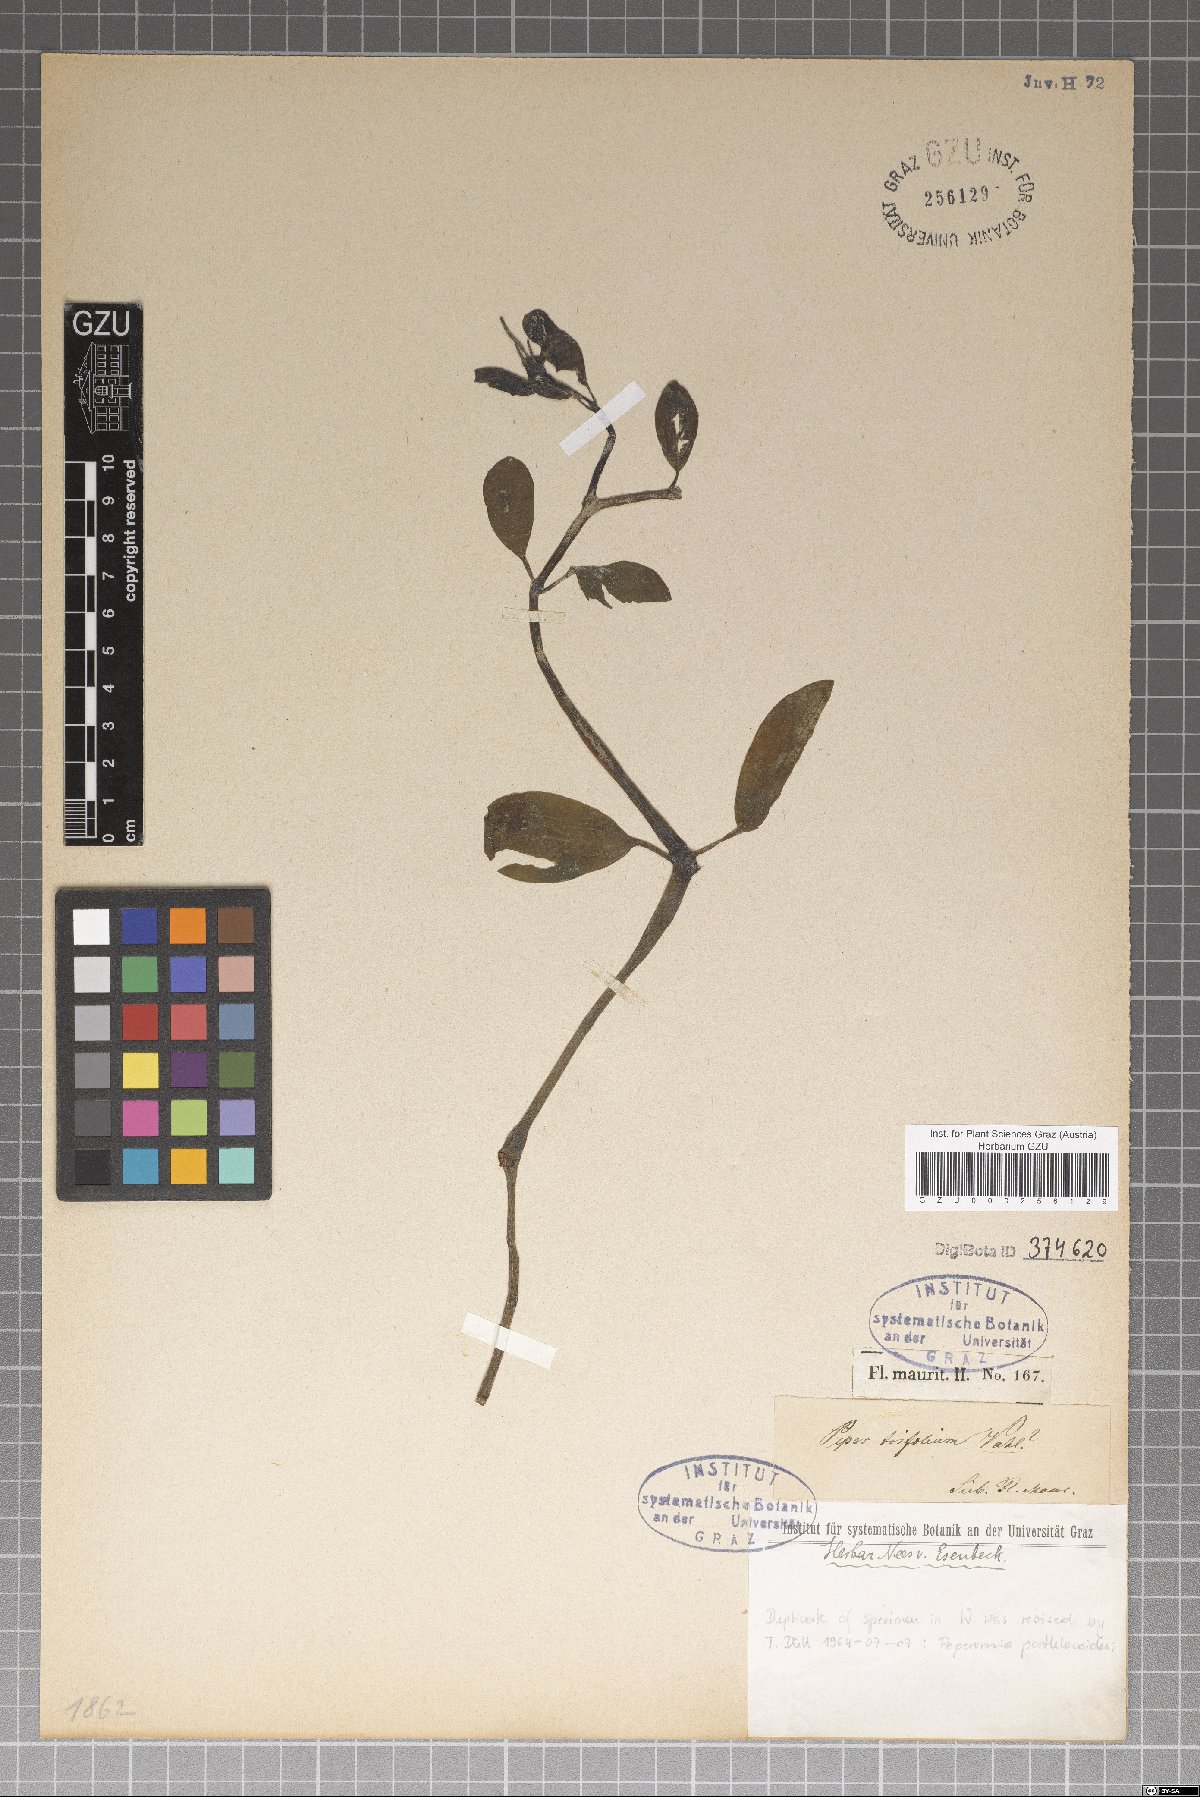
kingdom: Plantae
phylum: Tracheophyta
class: Magnoliopsida
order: Piperales
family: Piperaceae
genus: Peperomia
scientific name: Peperomia portulacoides
